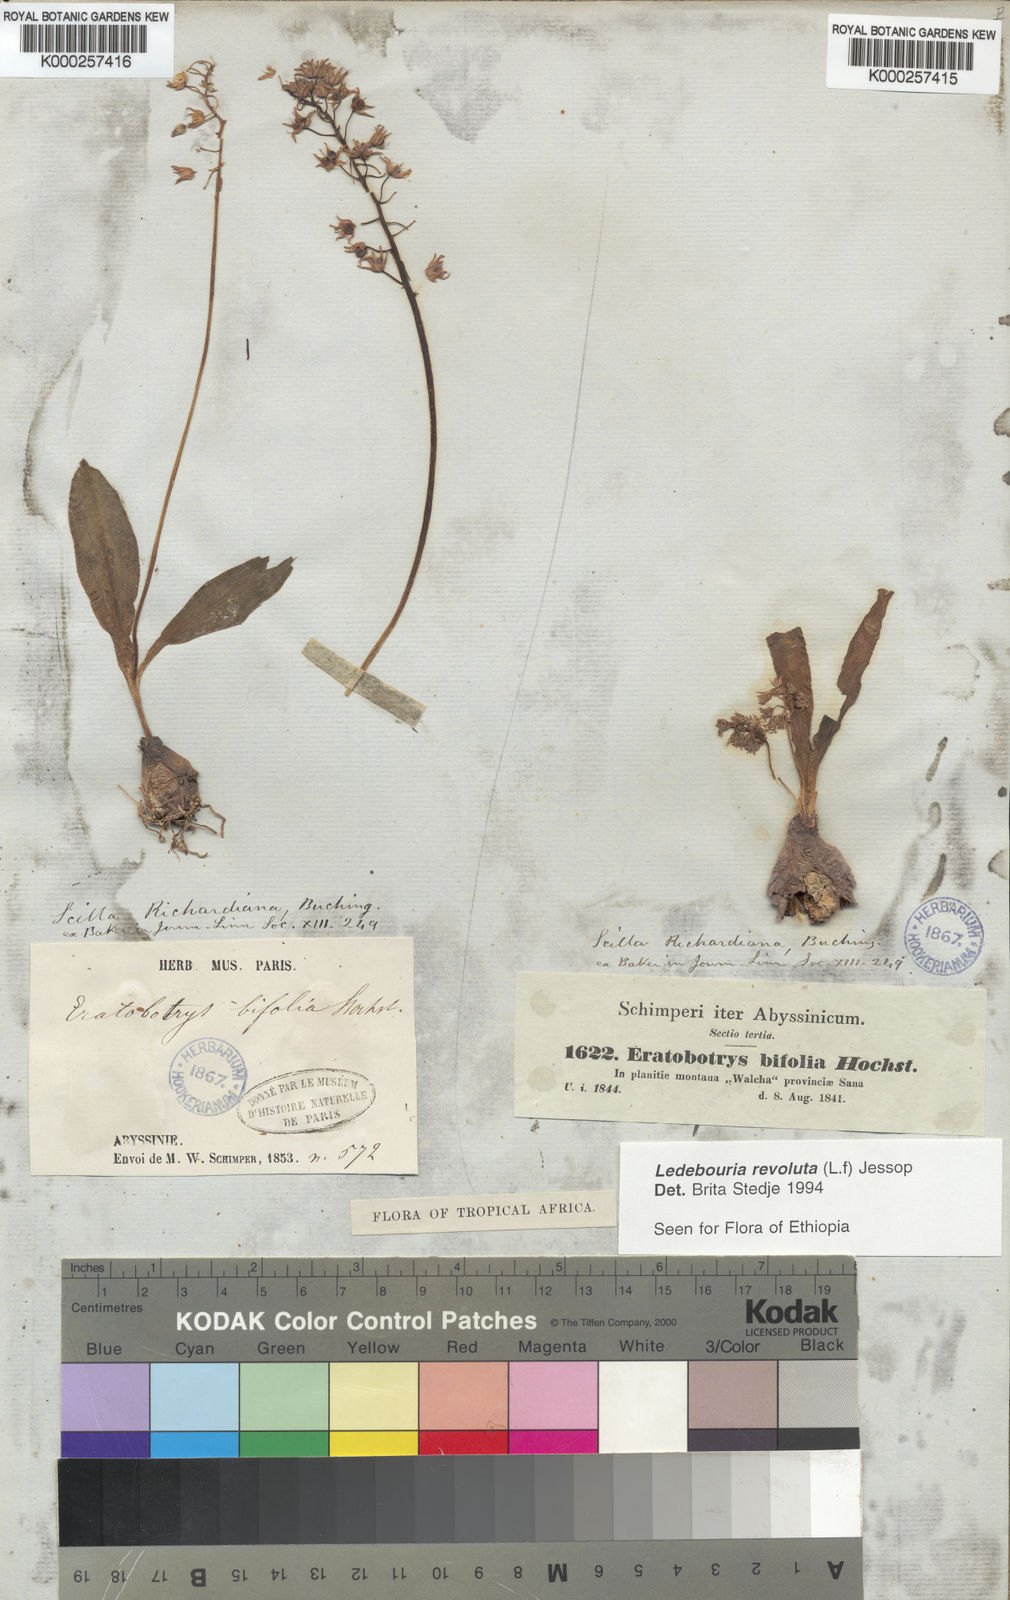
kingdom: Plantae
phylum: Tracheophyta
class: Liliopsida
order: Asparagales
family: Asparagaceae
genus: Ledebouria
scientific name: Ledebouria revoluta
